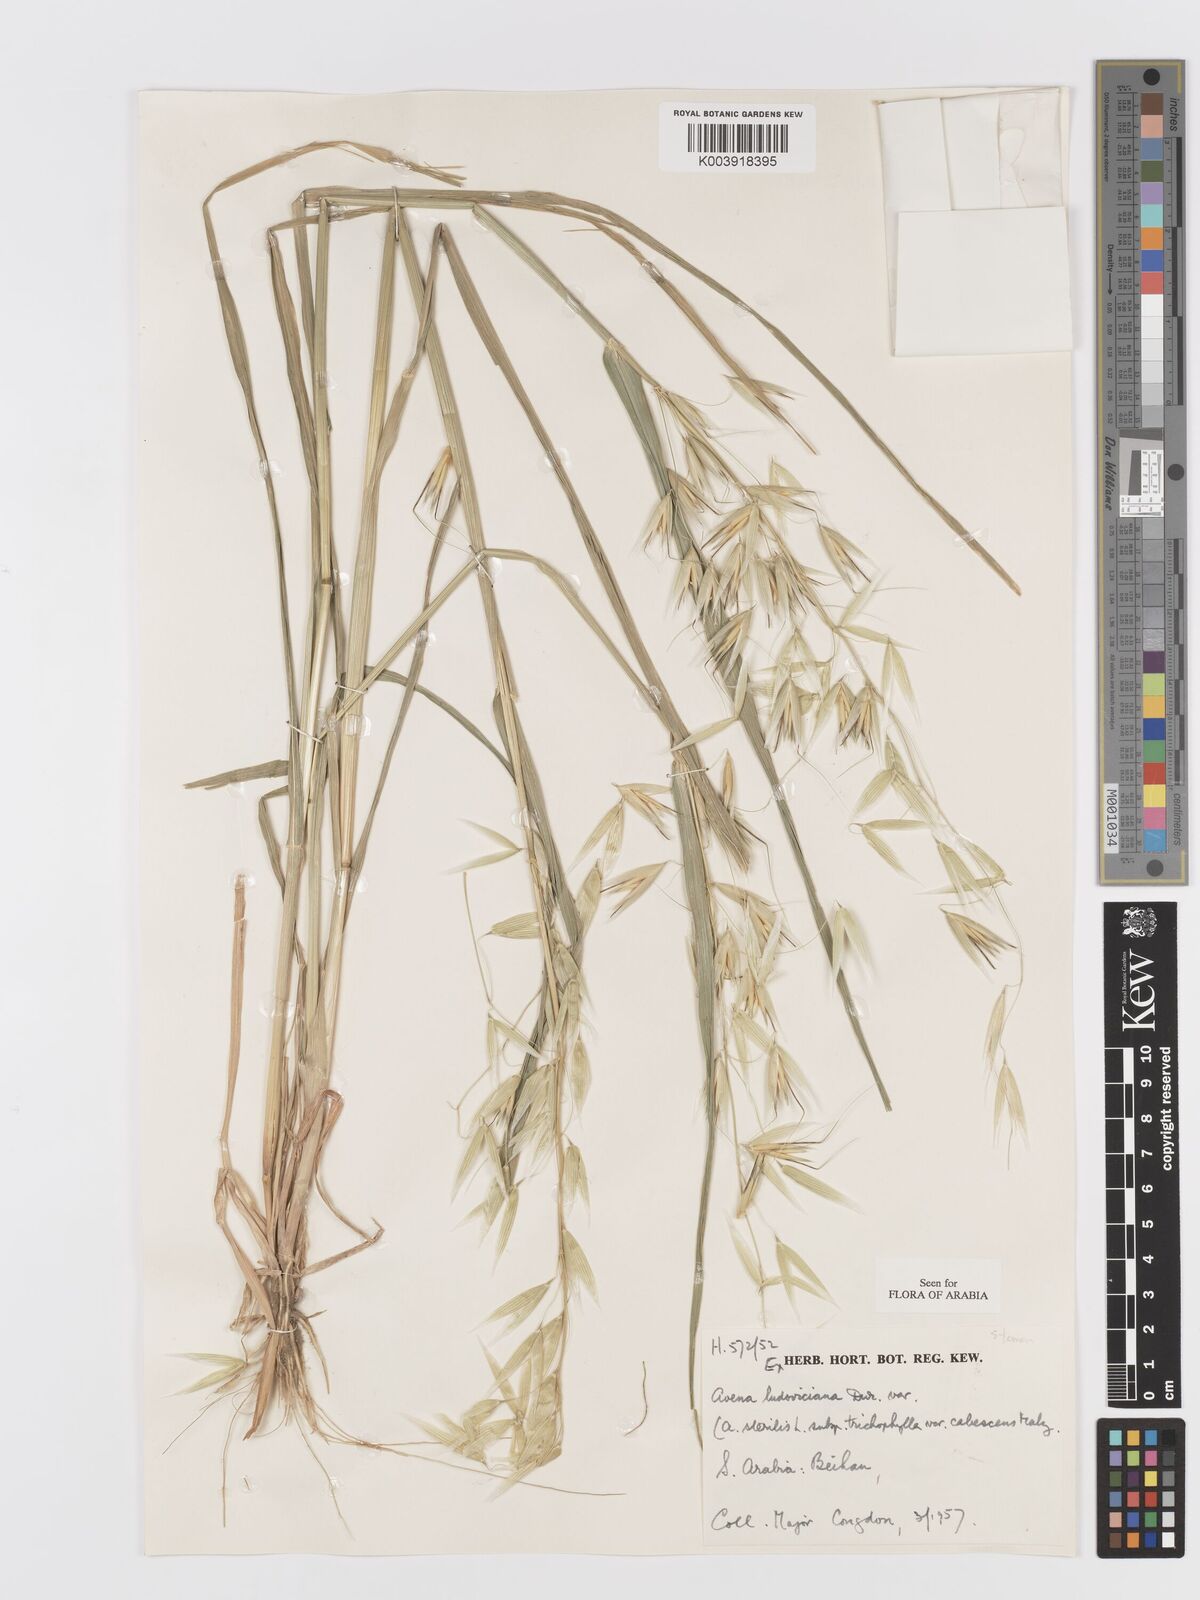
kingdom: Plantae
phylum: Tracheophyta
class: Liliopsida
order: Poales
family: Poaceae
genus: Avena
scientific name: Avena sterilis
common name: Animated oat
